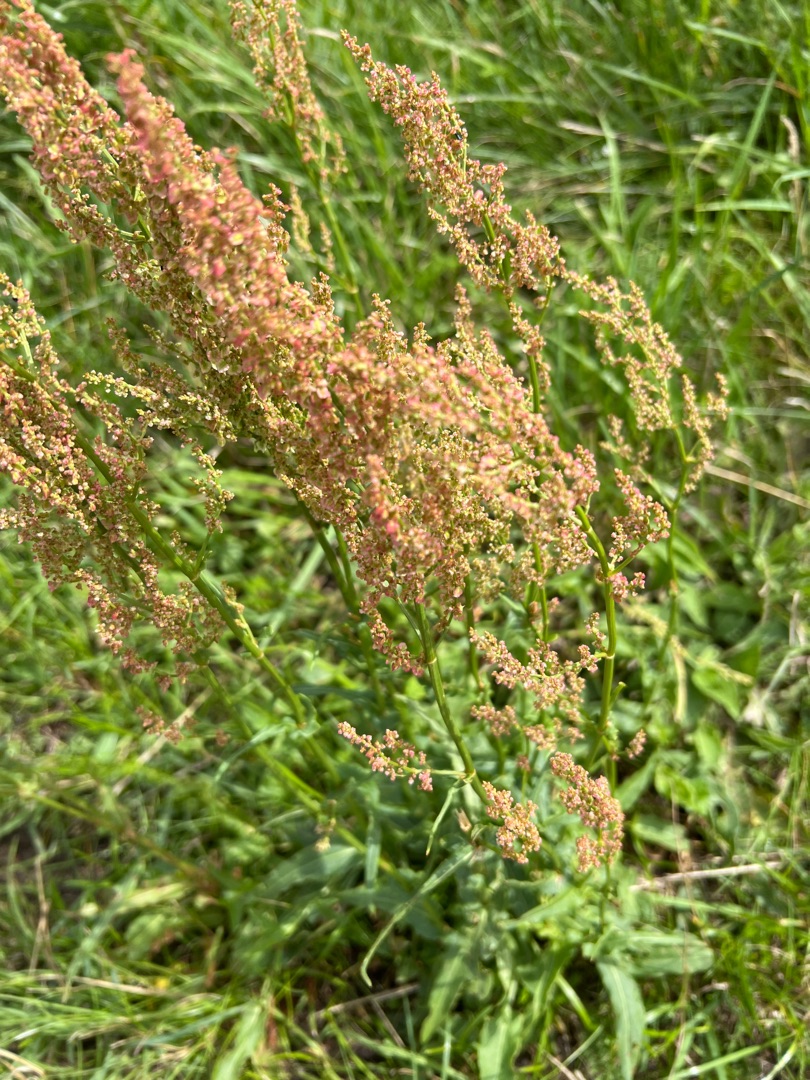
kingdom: Plantae
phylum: Tracheophyta
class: Magnoliopsida
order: Caryophyllales
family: Polygonaceae
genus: Rumex
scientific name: Rumex thyrsiflorus
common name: Dusk-syre
